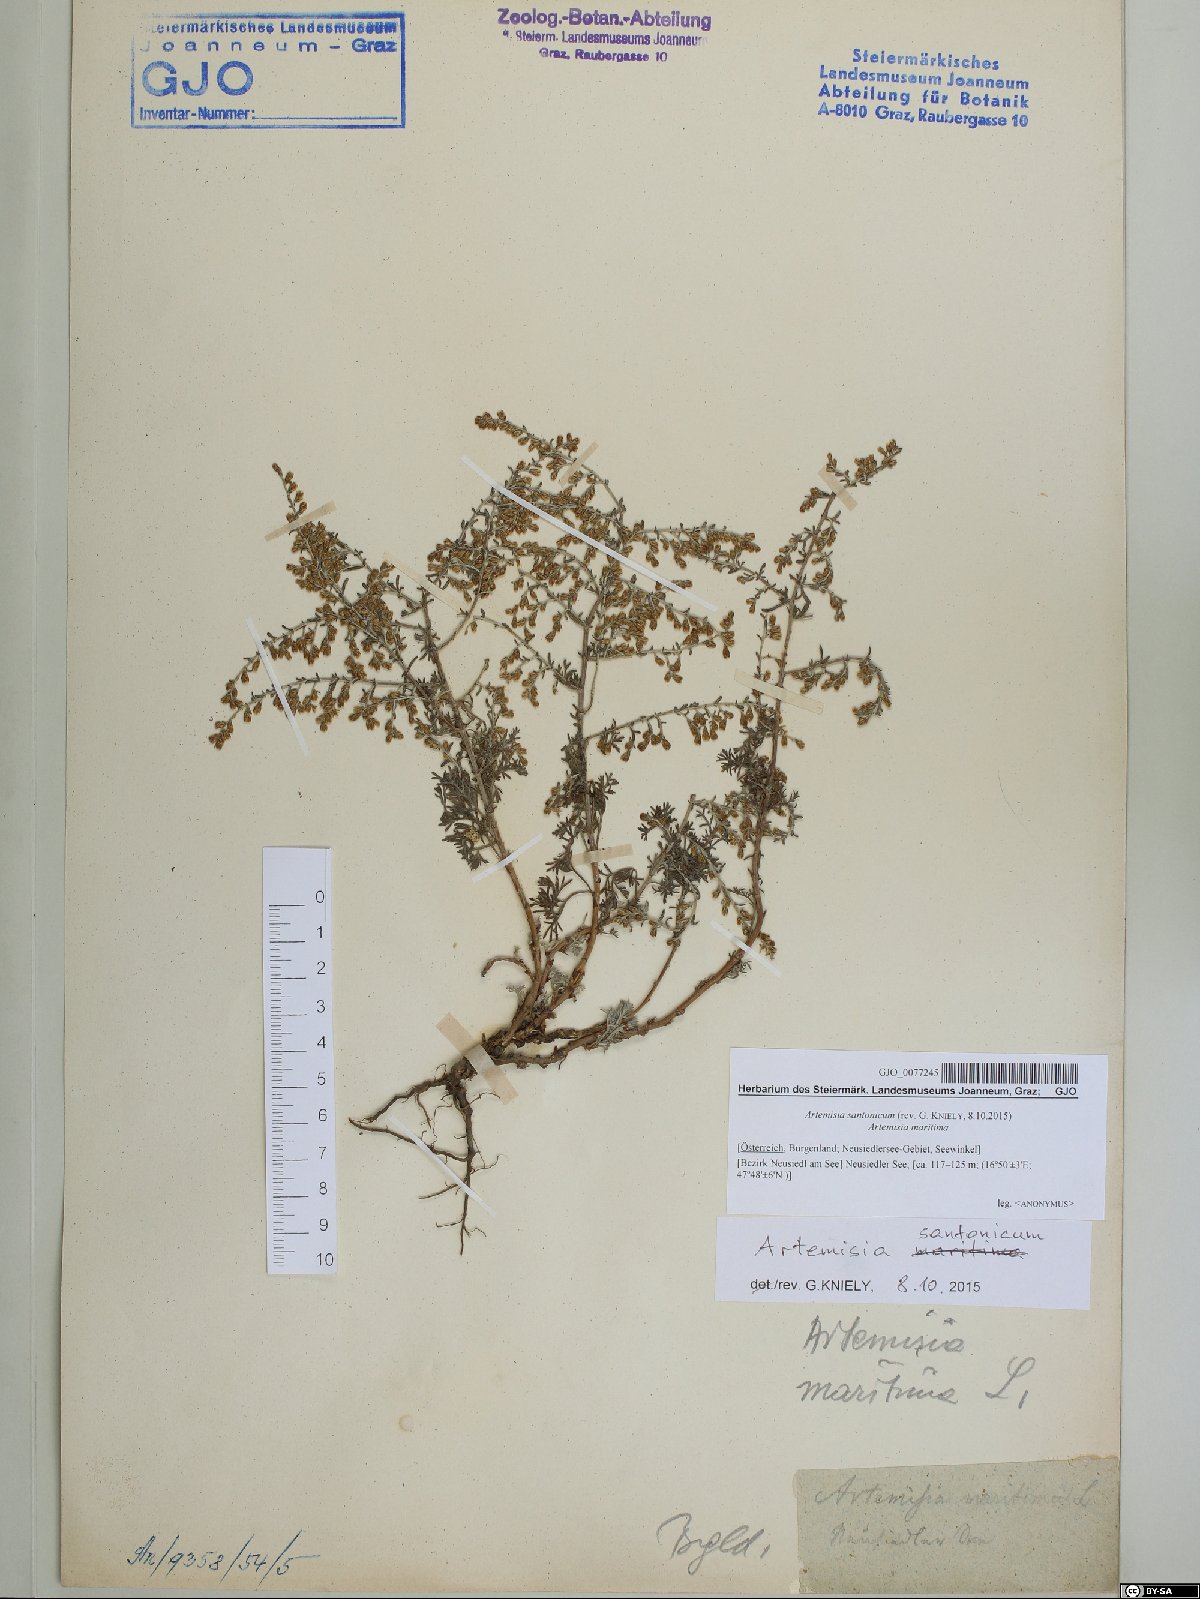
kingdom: Plantae
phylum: Tracheophyta
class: Magnoliopsida
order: Asterales
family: Asteraceae
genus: Artemisia
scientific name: Artemisia santonicum
